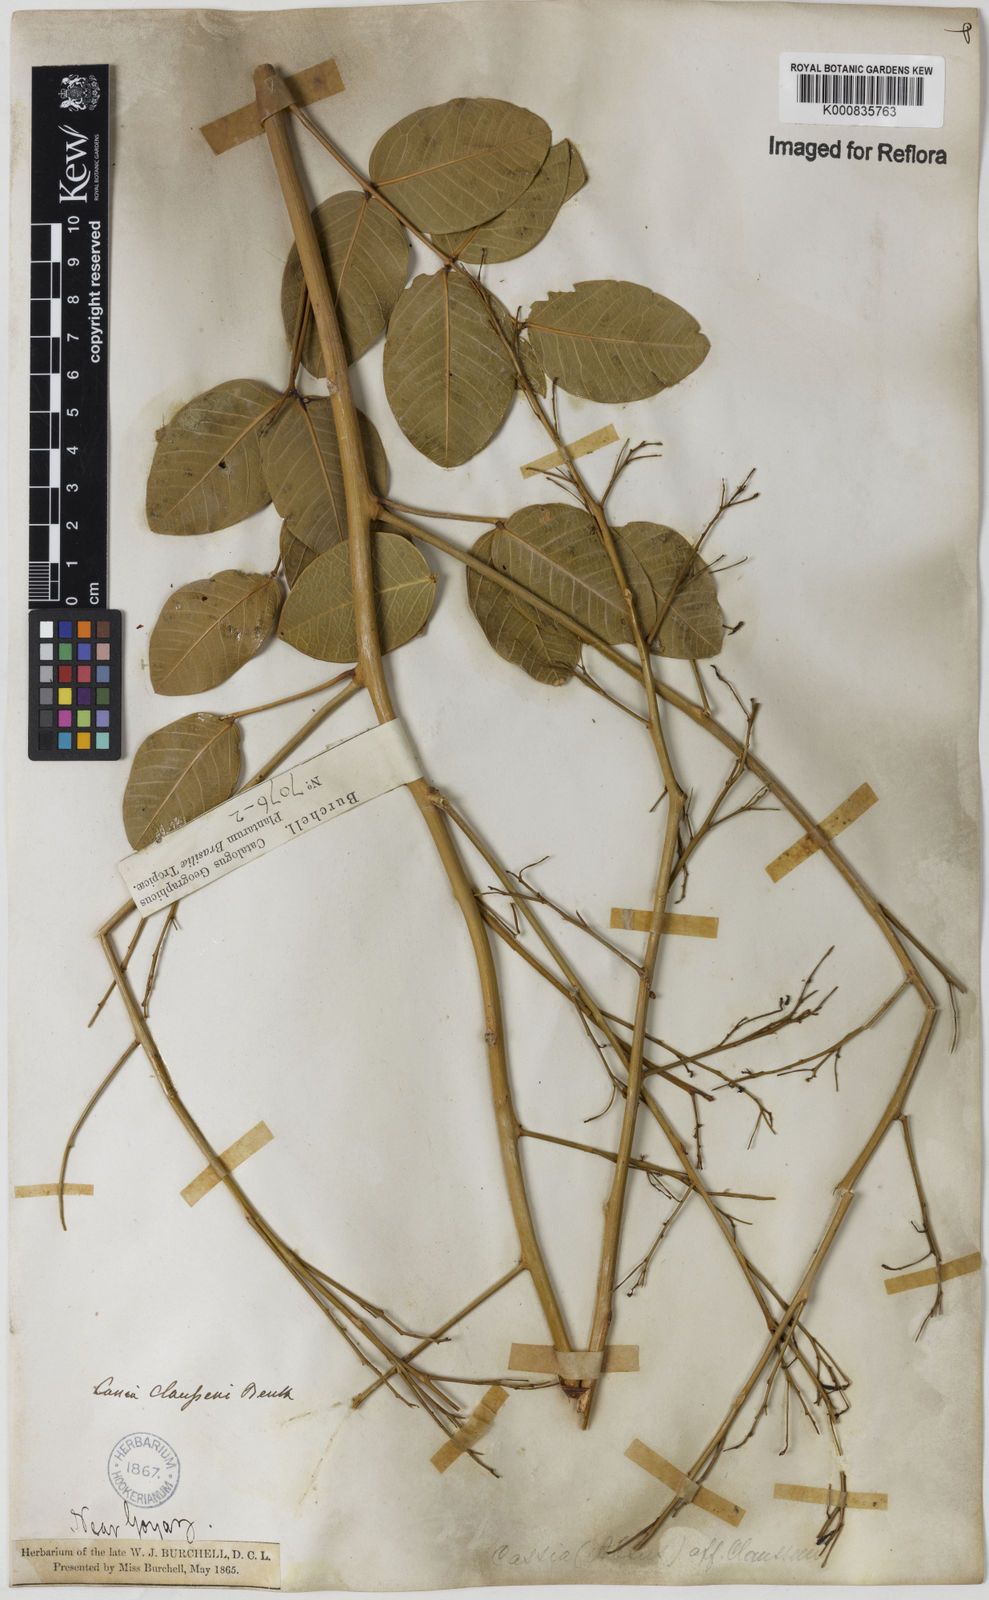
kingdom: Plantae
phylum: Tracheophyta
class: Magnoliopsida
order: Fabales
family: Fabaceae
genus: Chamaecrista
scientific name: Chamaecrista claussenii
